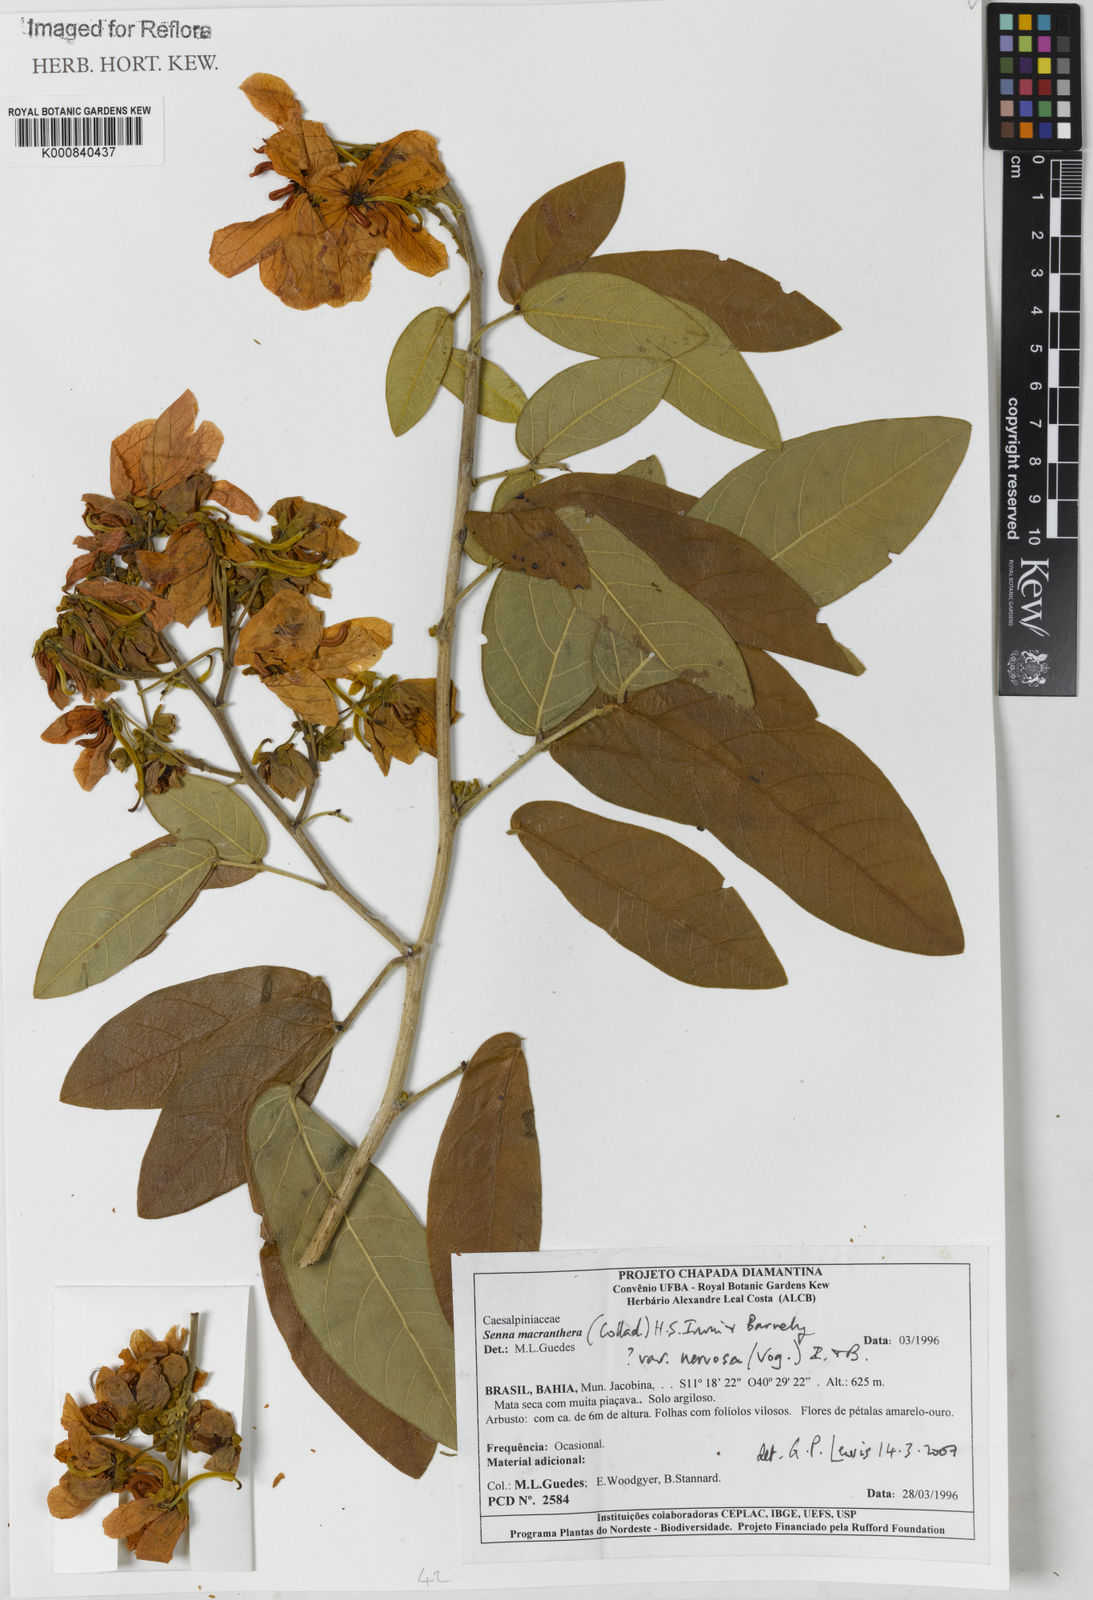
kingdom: Plantae
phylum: Tracheophyta
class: Magnoliopsida
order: Fabales
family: Fabaceae
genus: Senna
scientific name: Senna macranthera
